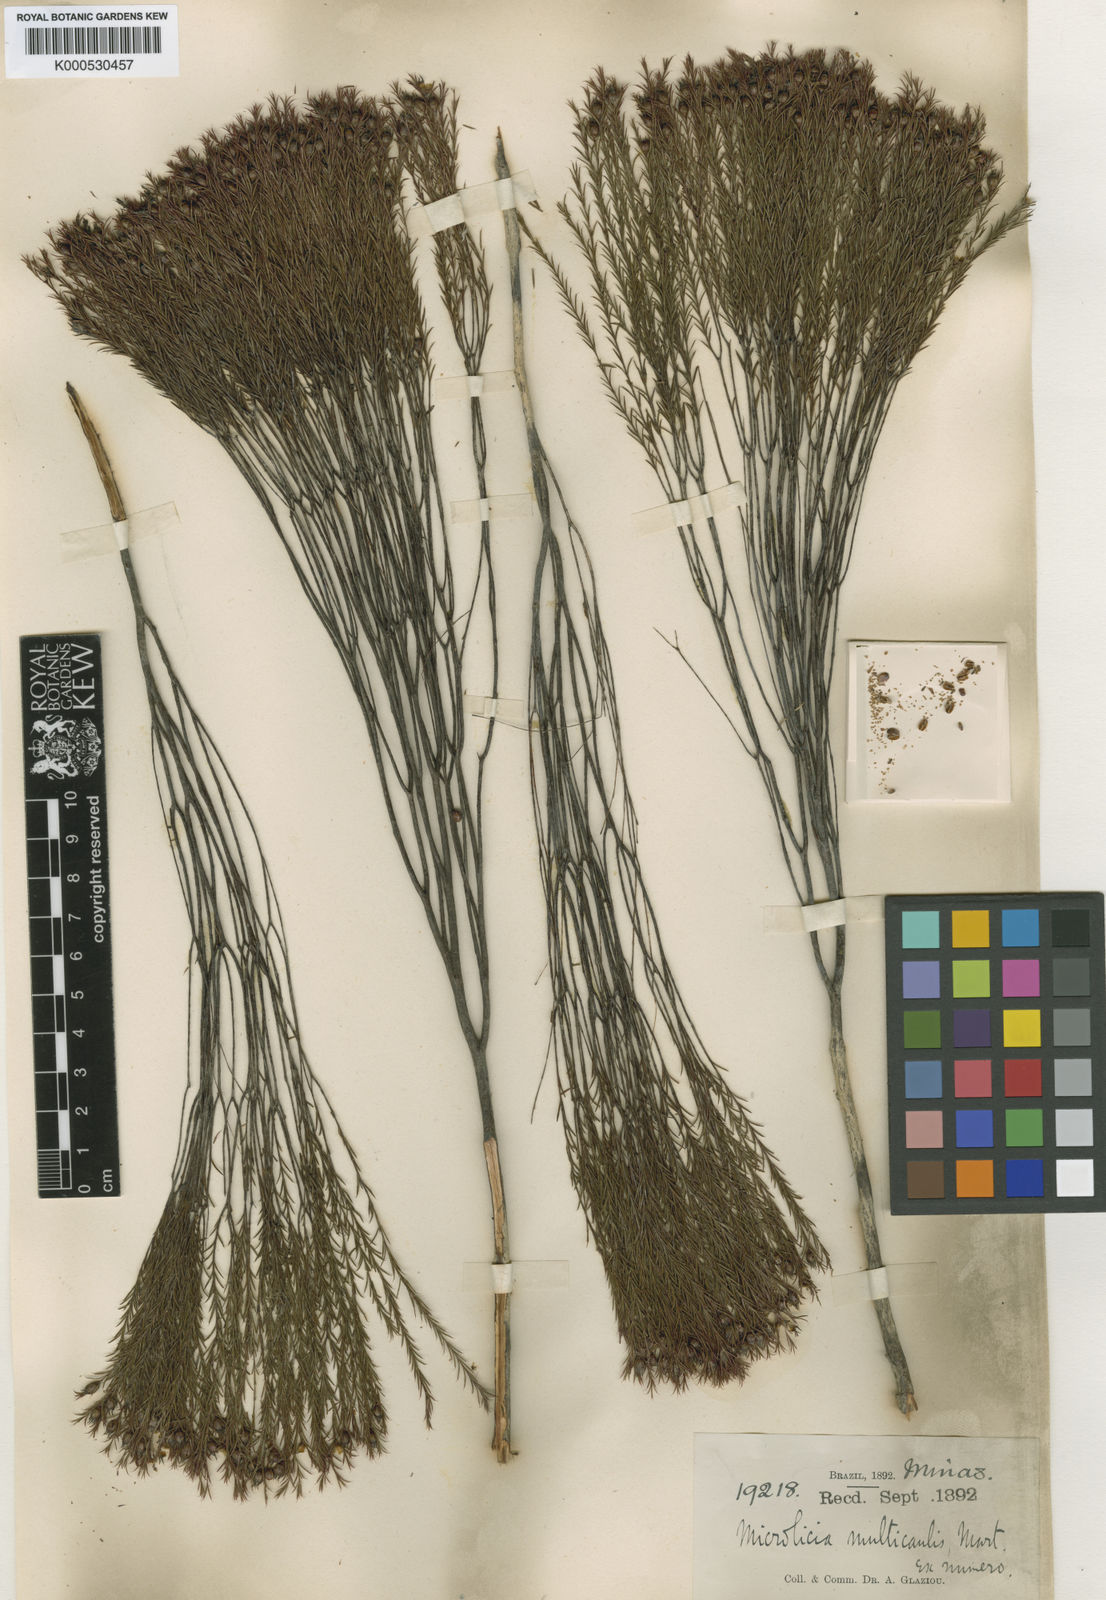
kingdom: Plantae
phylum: Tracheophyta
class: Magnoliopsida
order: Myrtales
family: Melastomataceae
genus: Microlicia
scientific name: Microlicia multicaulis
